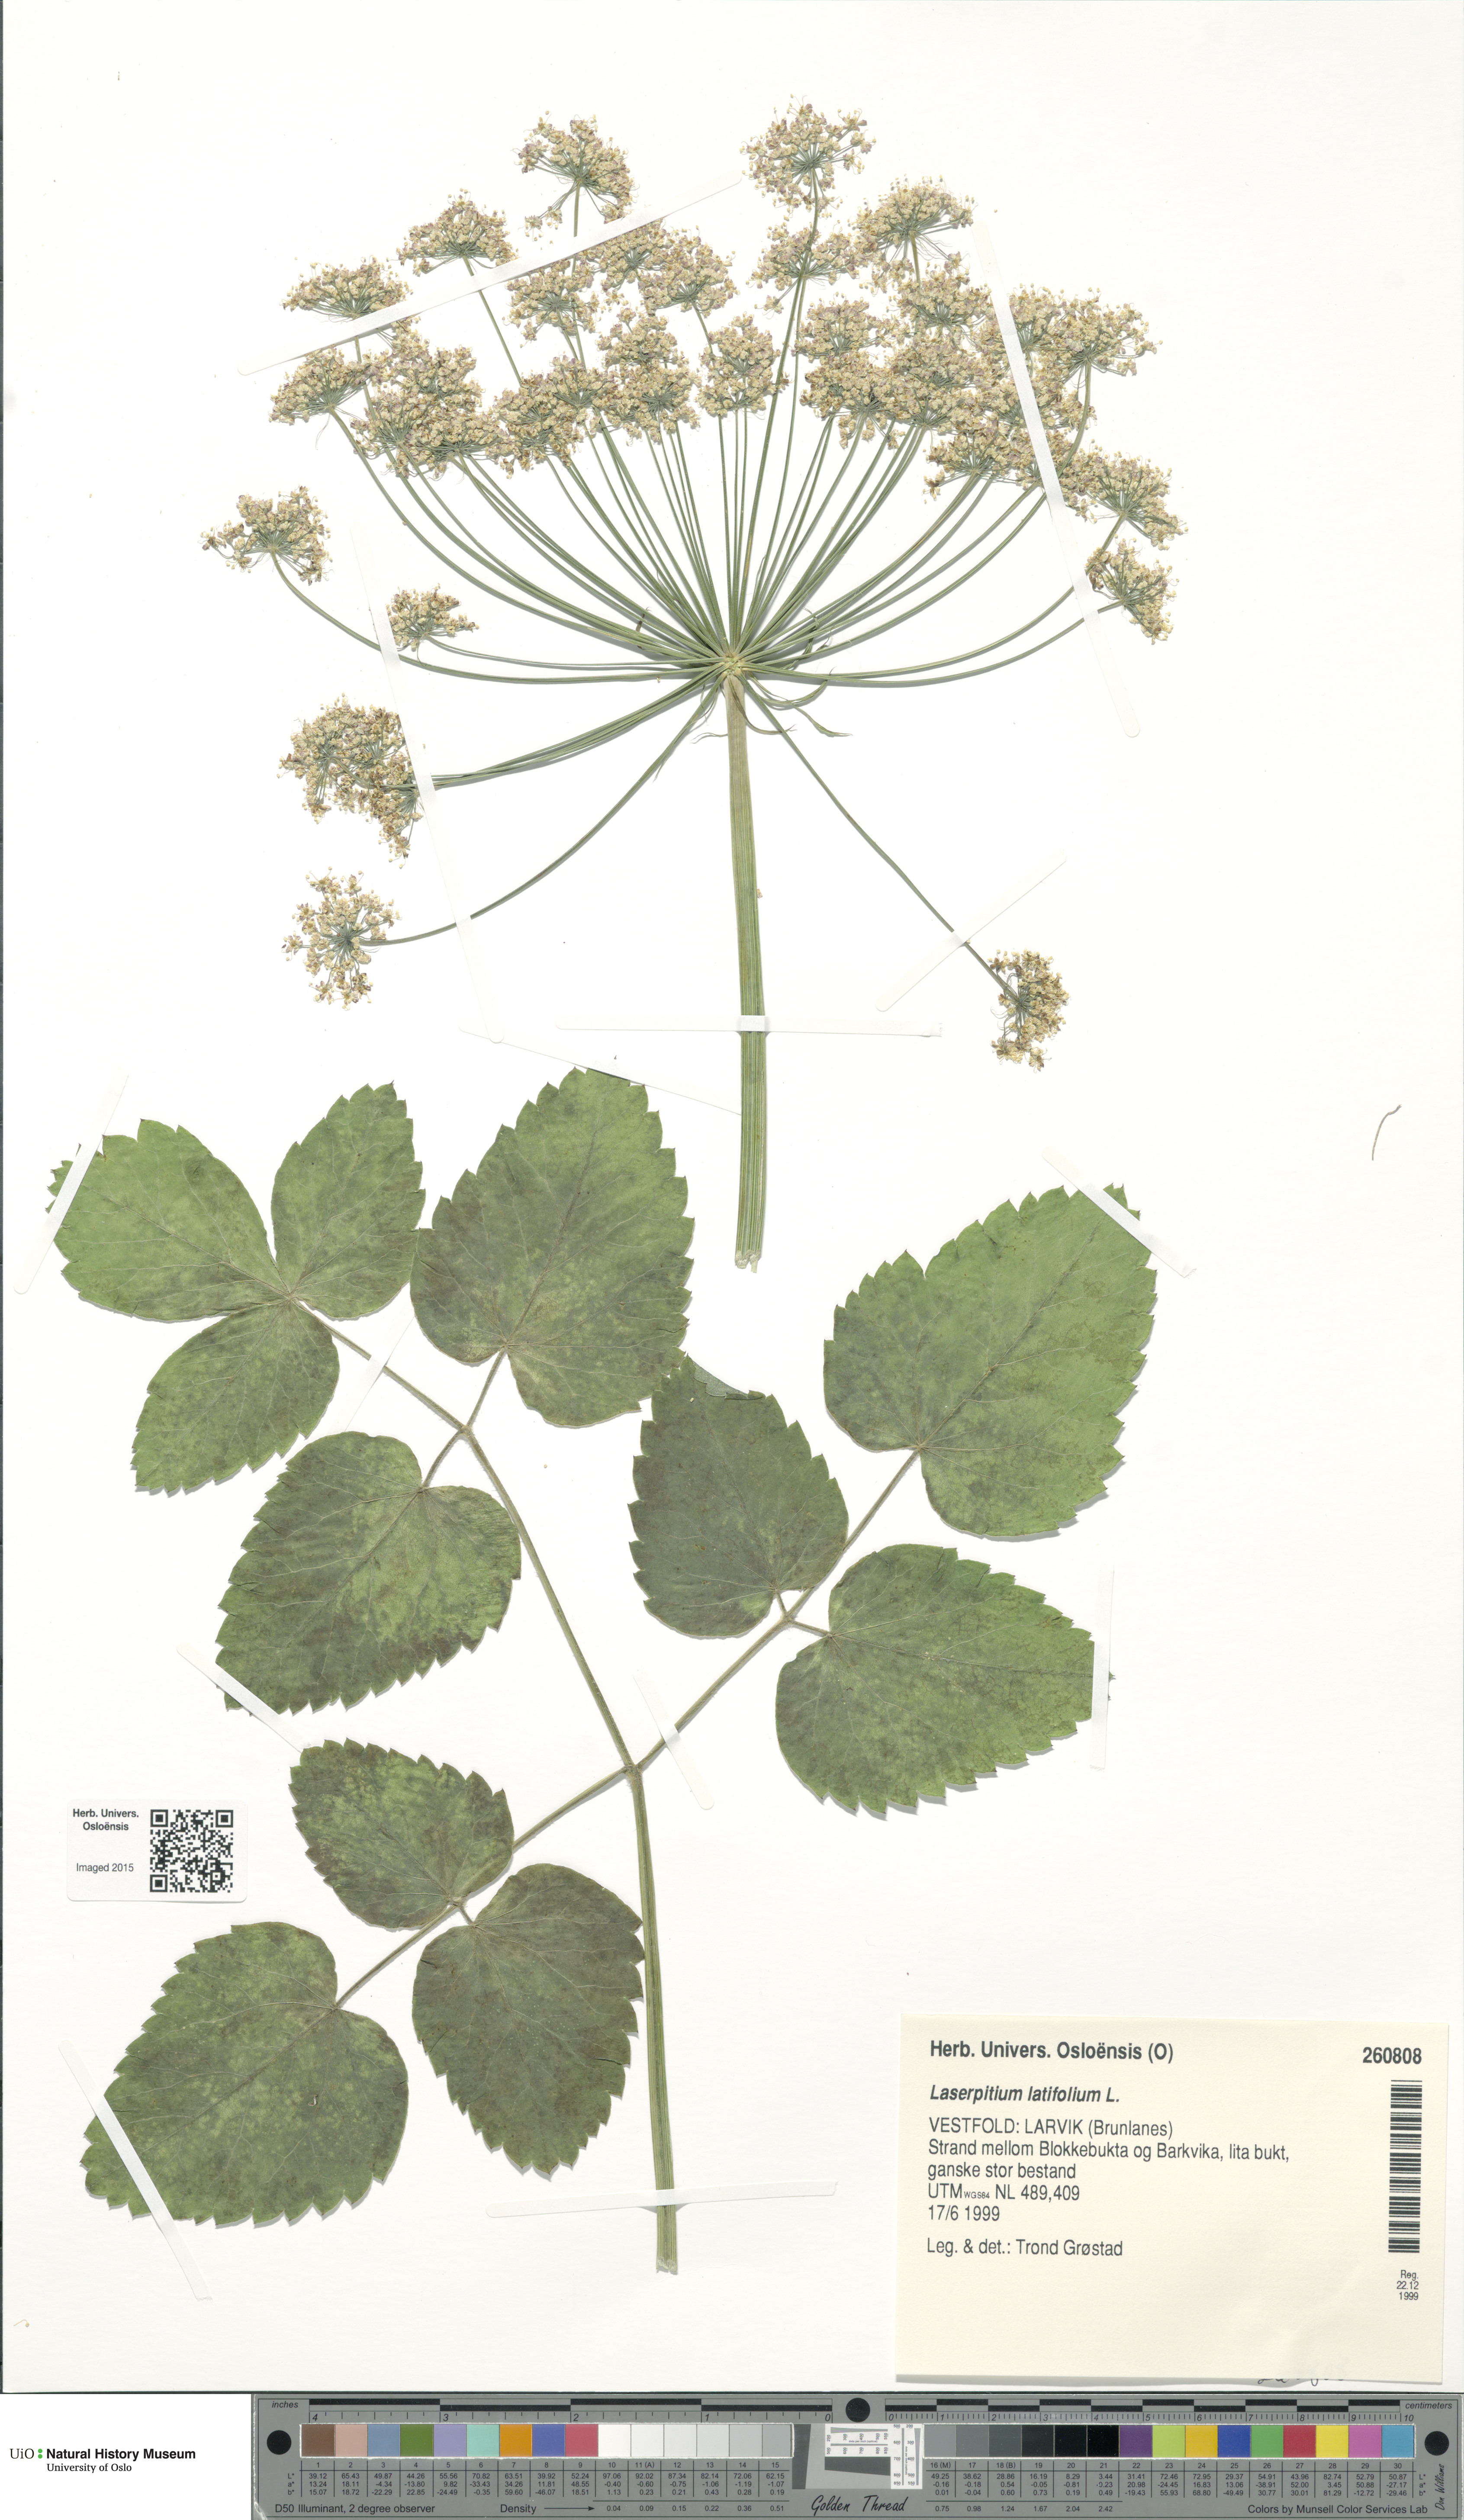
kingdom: Plantae
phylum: Tracheophyta
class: Magnoliopsida
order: Apiales
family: Apiaceae
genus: Laserpitium
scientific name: Laserpitium latifolium
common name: Broadleaf sermountain
